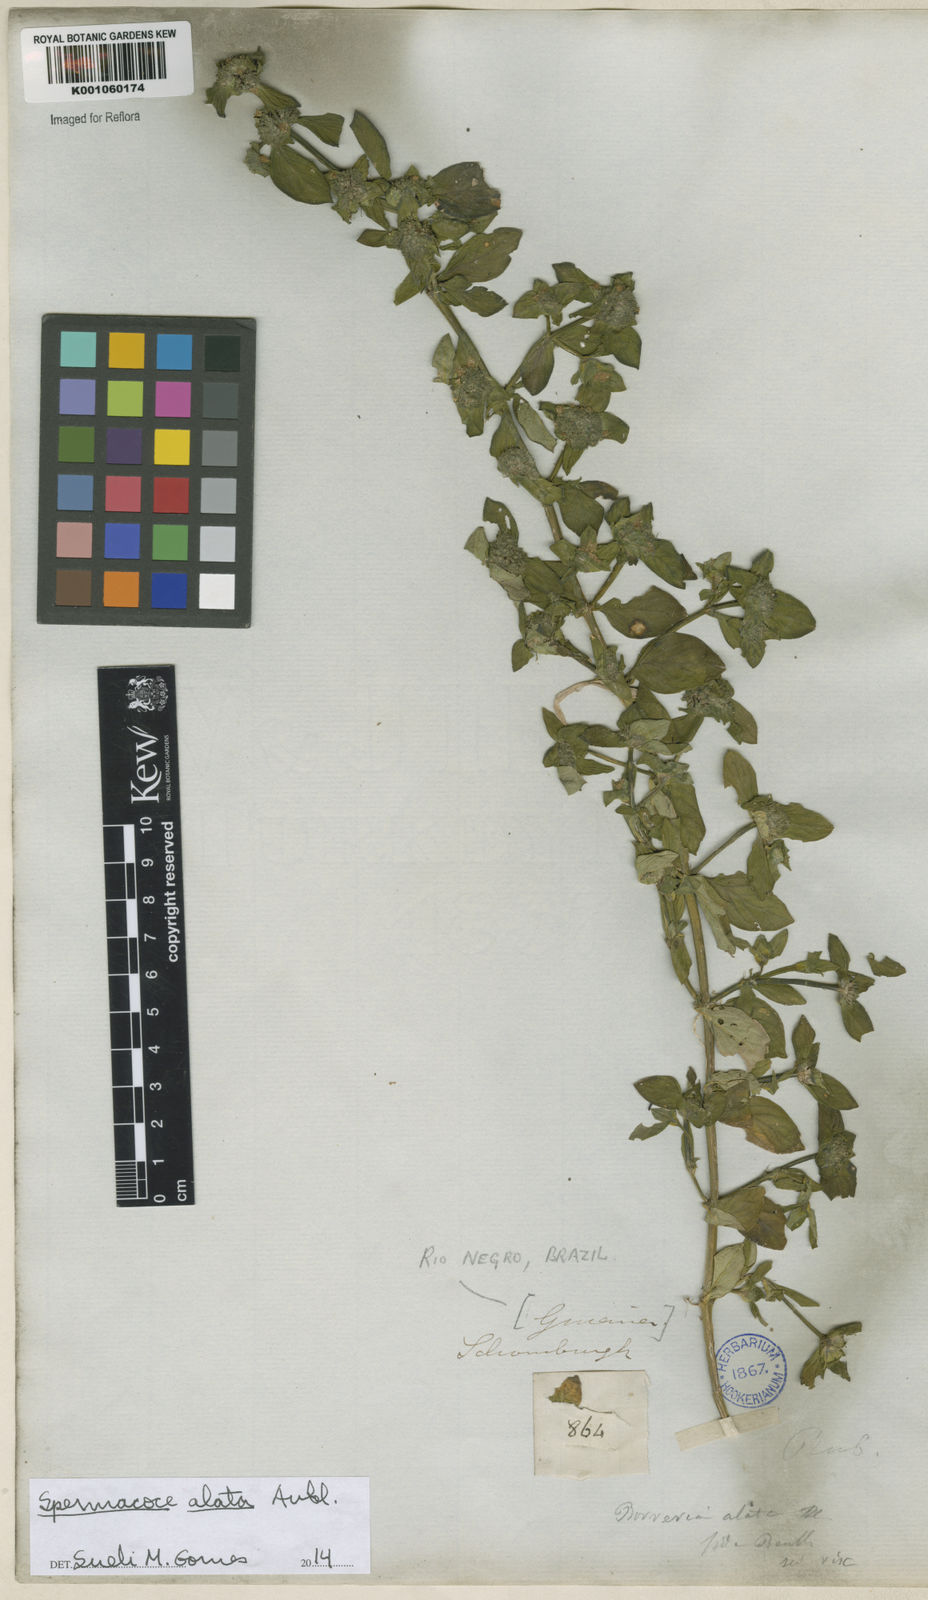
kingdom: Plantae
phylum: Tracheophyta
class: Magnoliopsida
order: Gentianales
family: Rubiaceae
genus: Spermacoce
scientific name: Spermacoce
